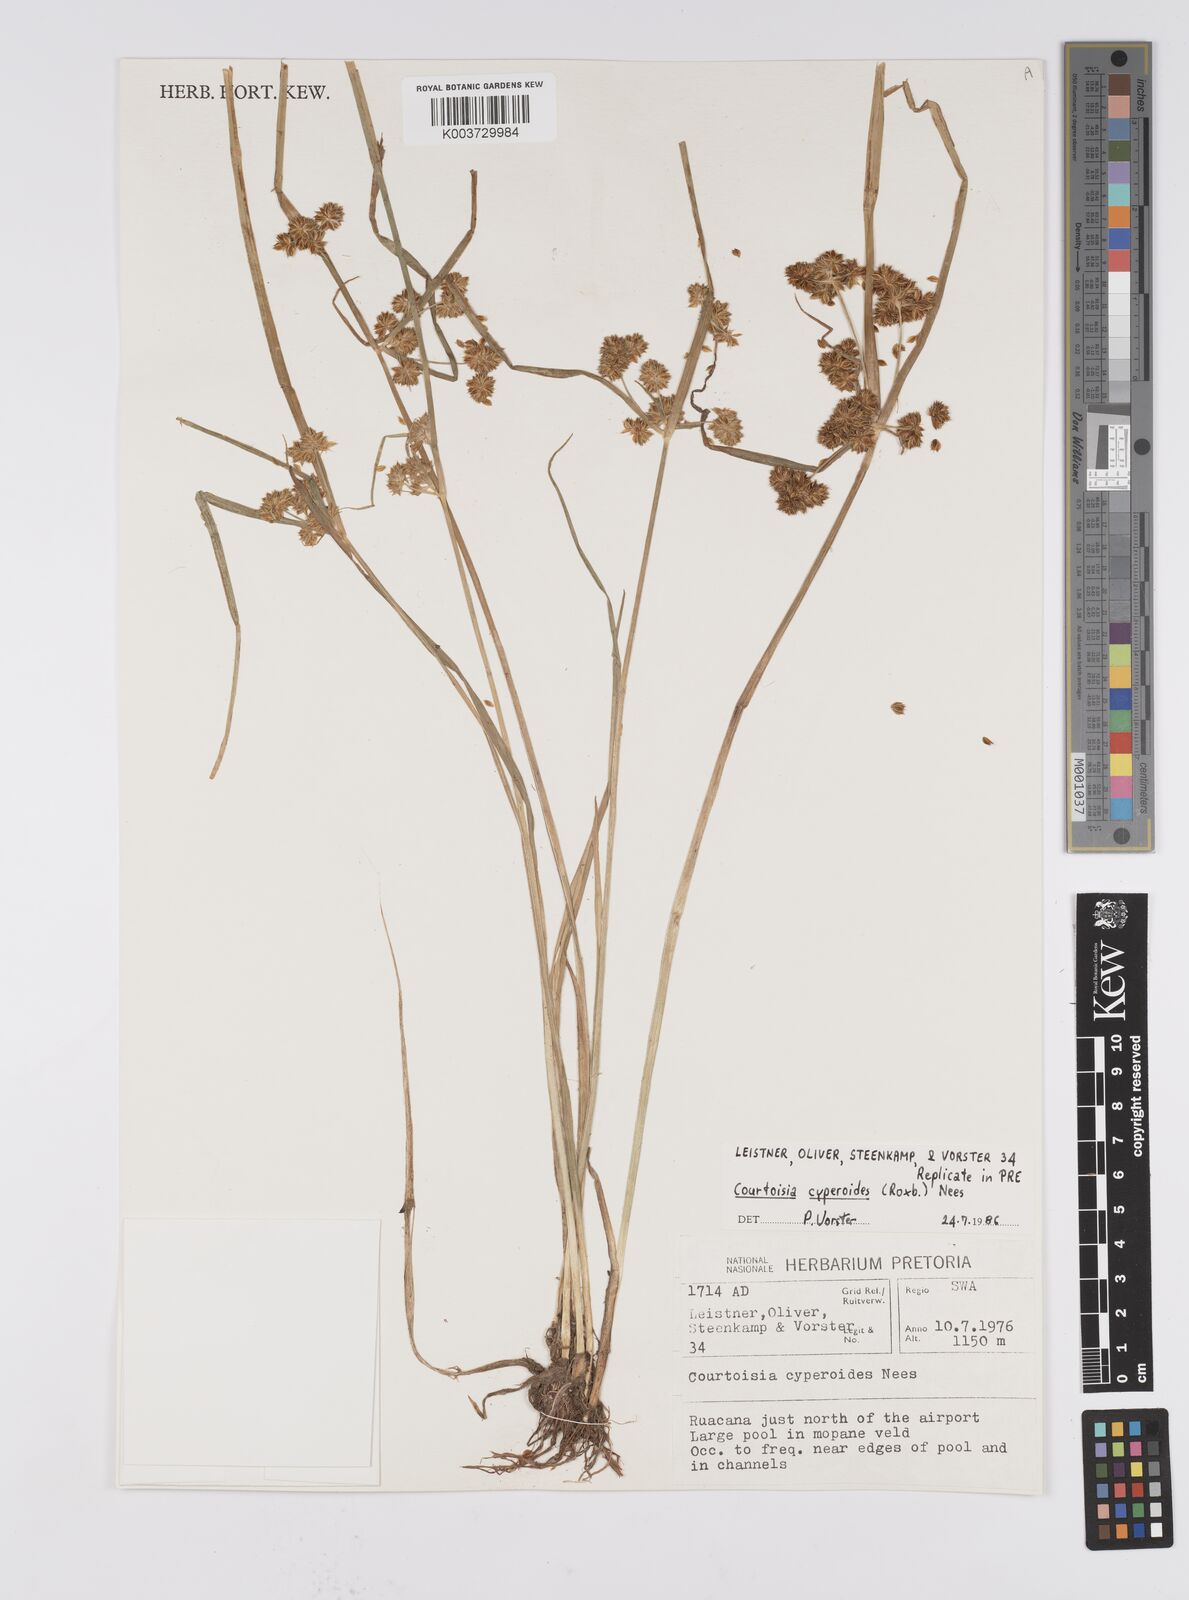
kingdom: Plantae
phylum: Tracheophyta
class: Liliopsida
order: Poales
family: Cyperaceae
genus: Cyperus
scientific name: Cyperus cyperoides
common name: Pacific island flat sedge
